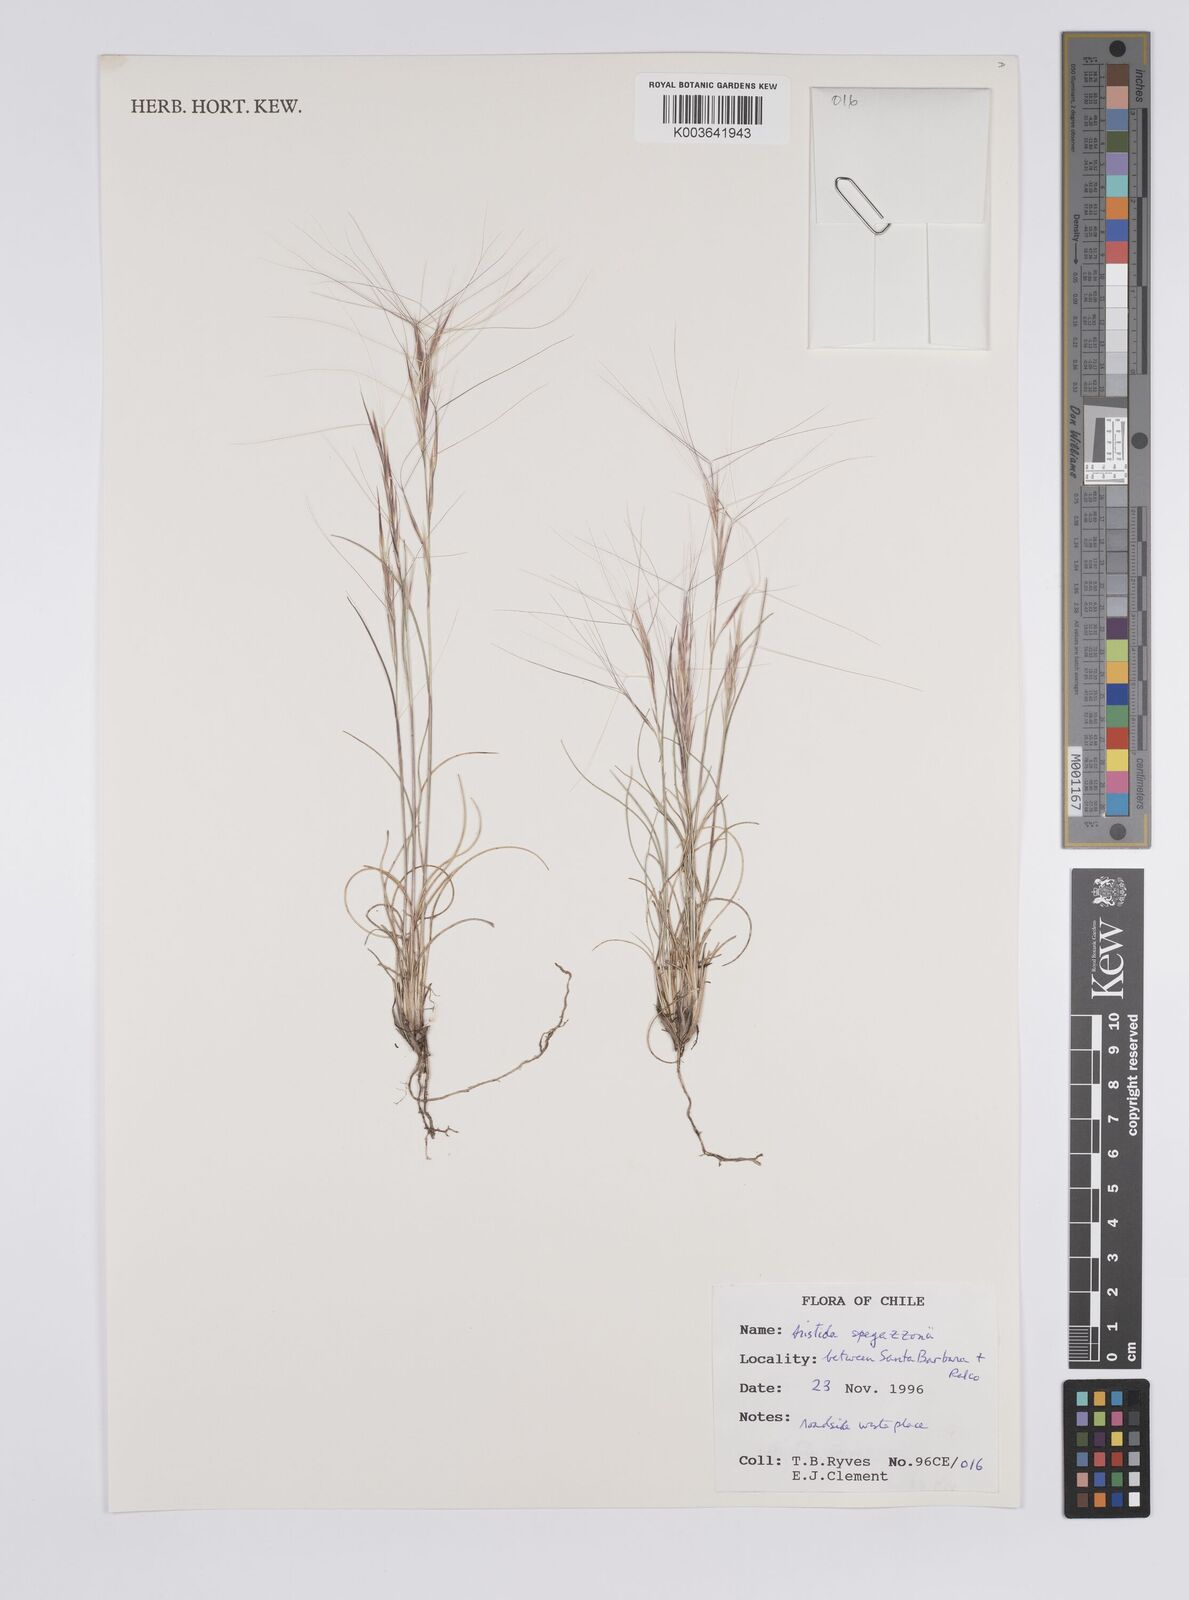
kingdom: Plantae
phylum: Tracheophyta
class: Liliopsida
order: Poales
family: Poaceae
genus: Aristida
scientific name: Aristida spegazzinii
